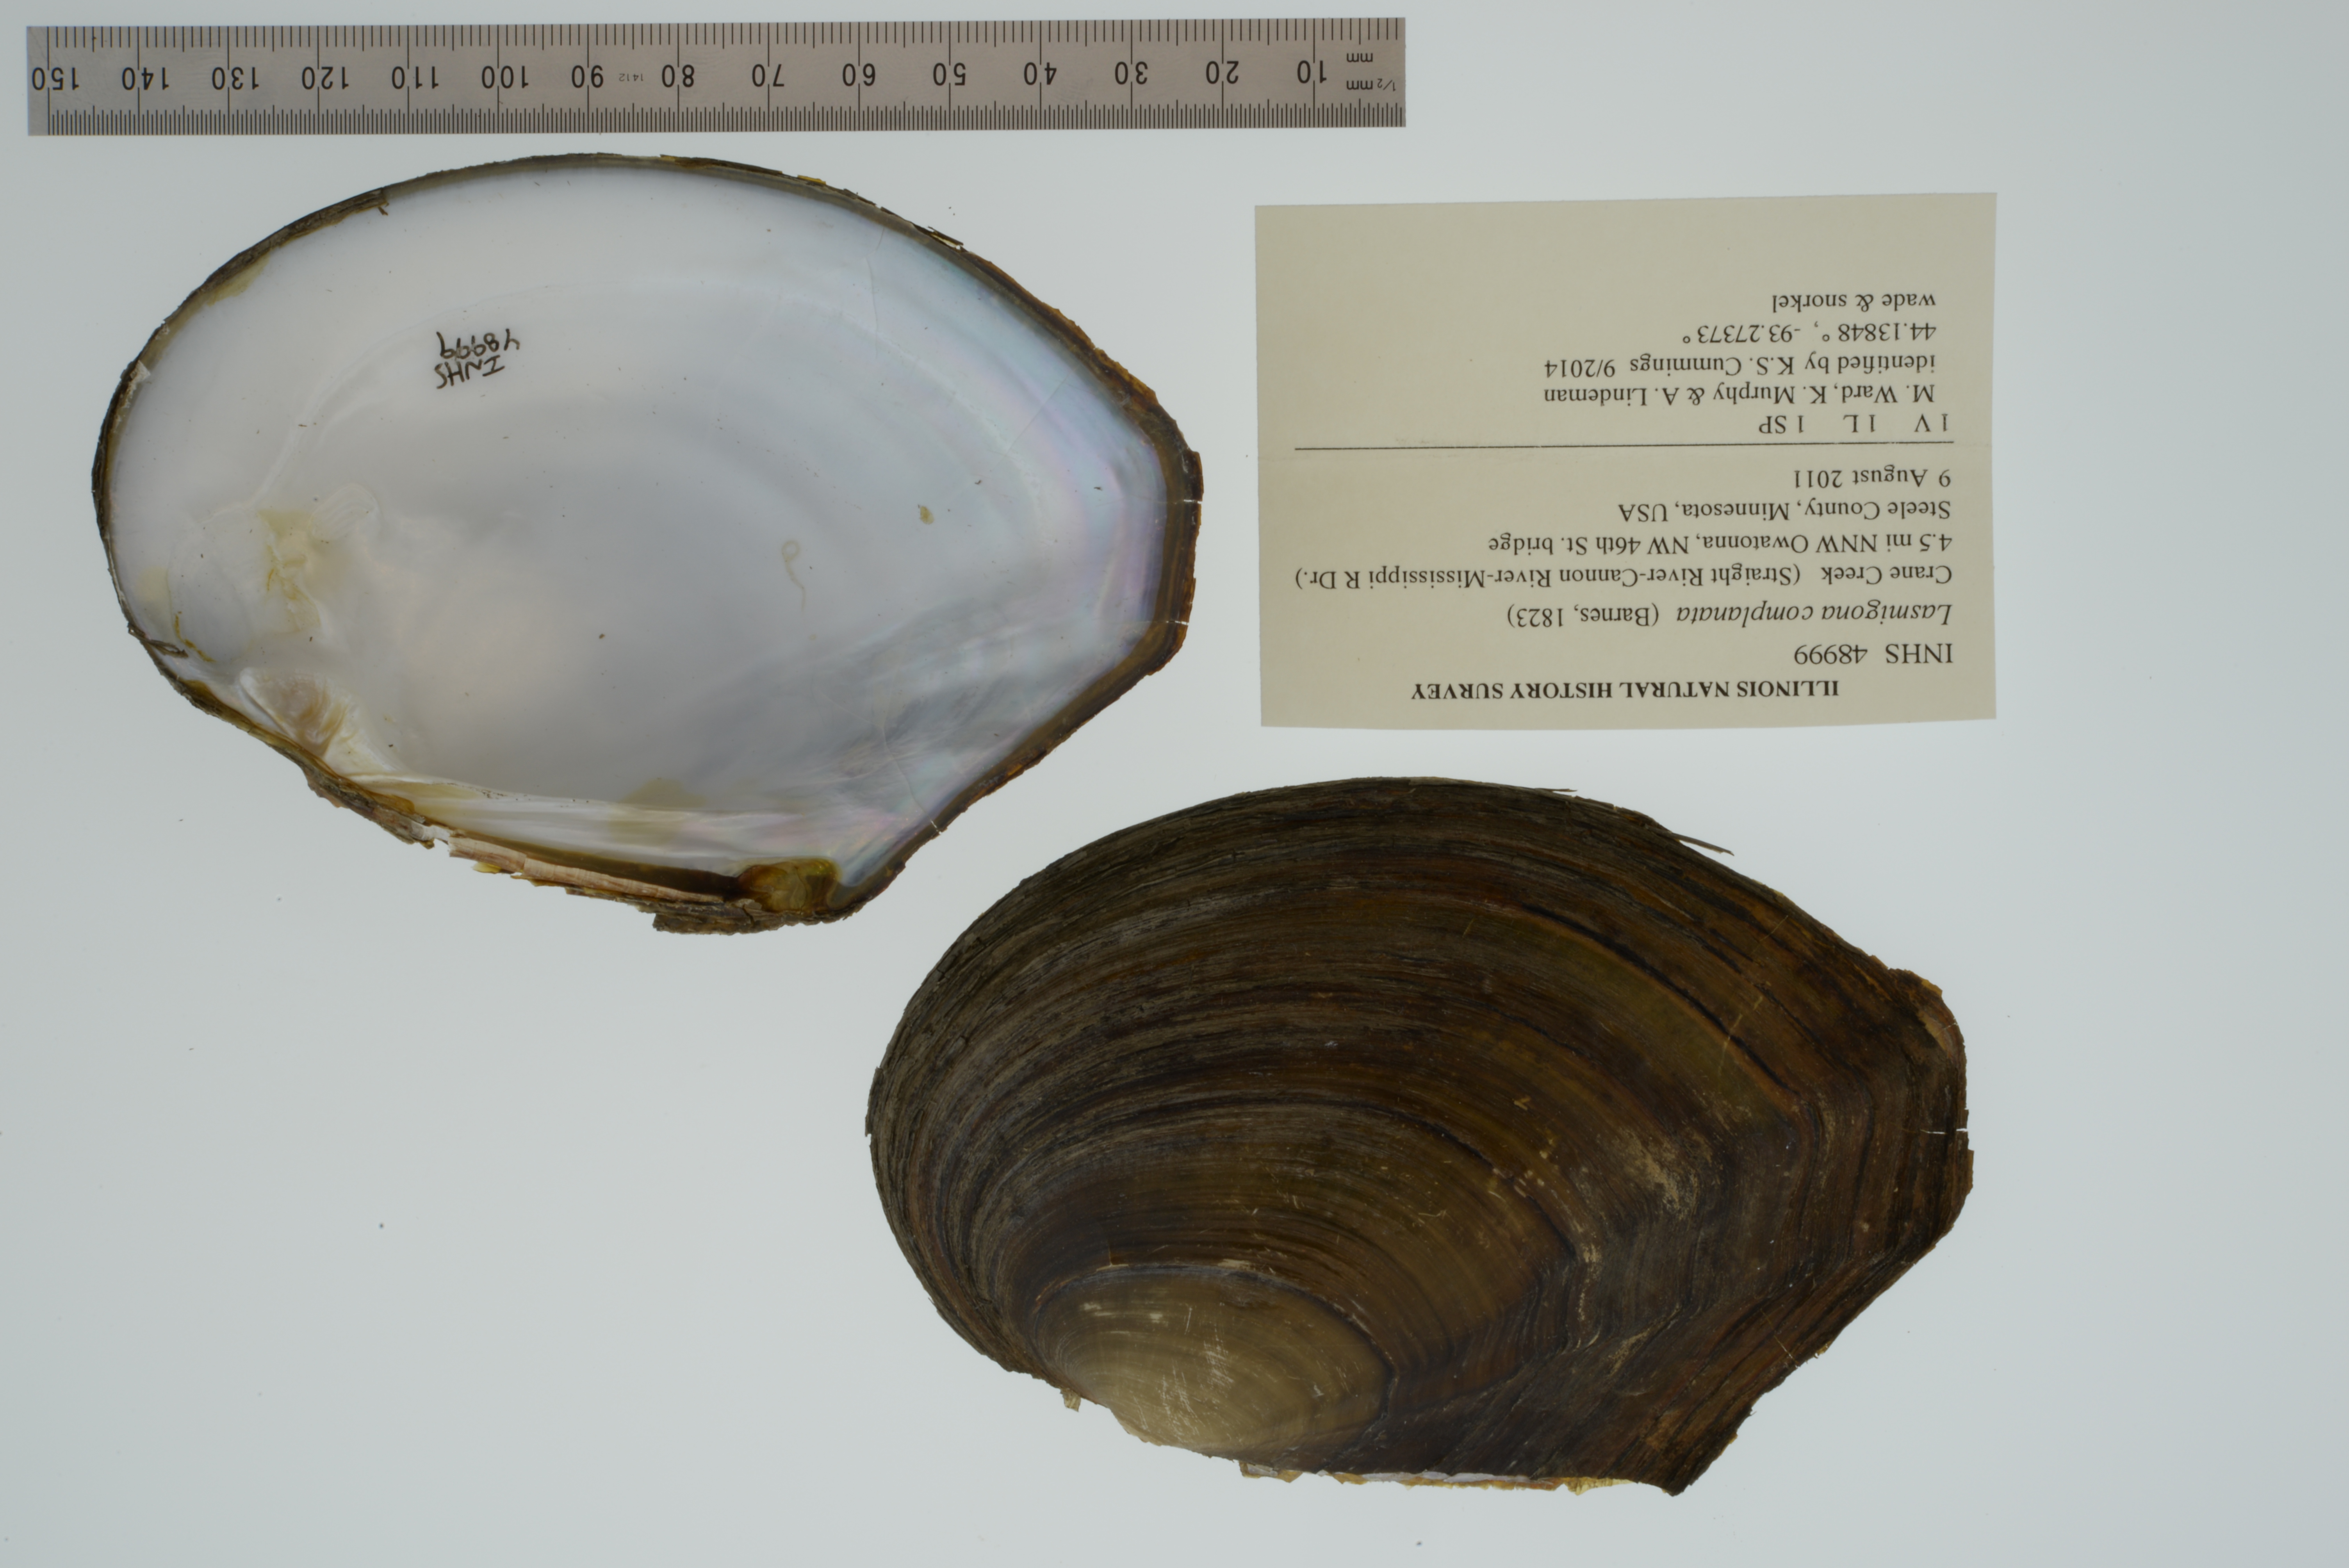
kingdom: Animalia
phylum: Mollusca
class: Bivalvia
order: Unionida
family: Unionidae
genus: Lasmigona
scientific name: Lasmigona complanata
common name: White heelsplitter
